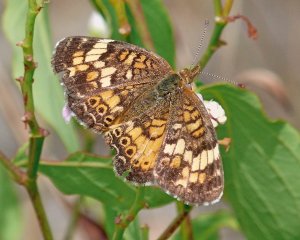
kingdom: Animalia
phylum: Arthropoda
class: Insecta
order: Lepidoptera
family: Nymphalidae
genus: Phyciodes
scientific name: Phyciodes tharos
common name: Field Crescent
